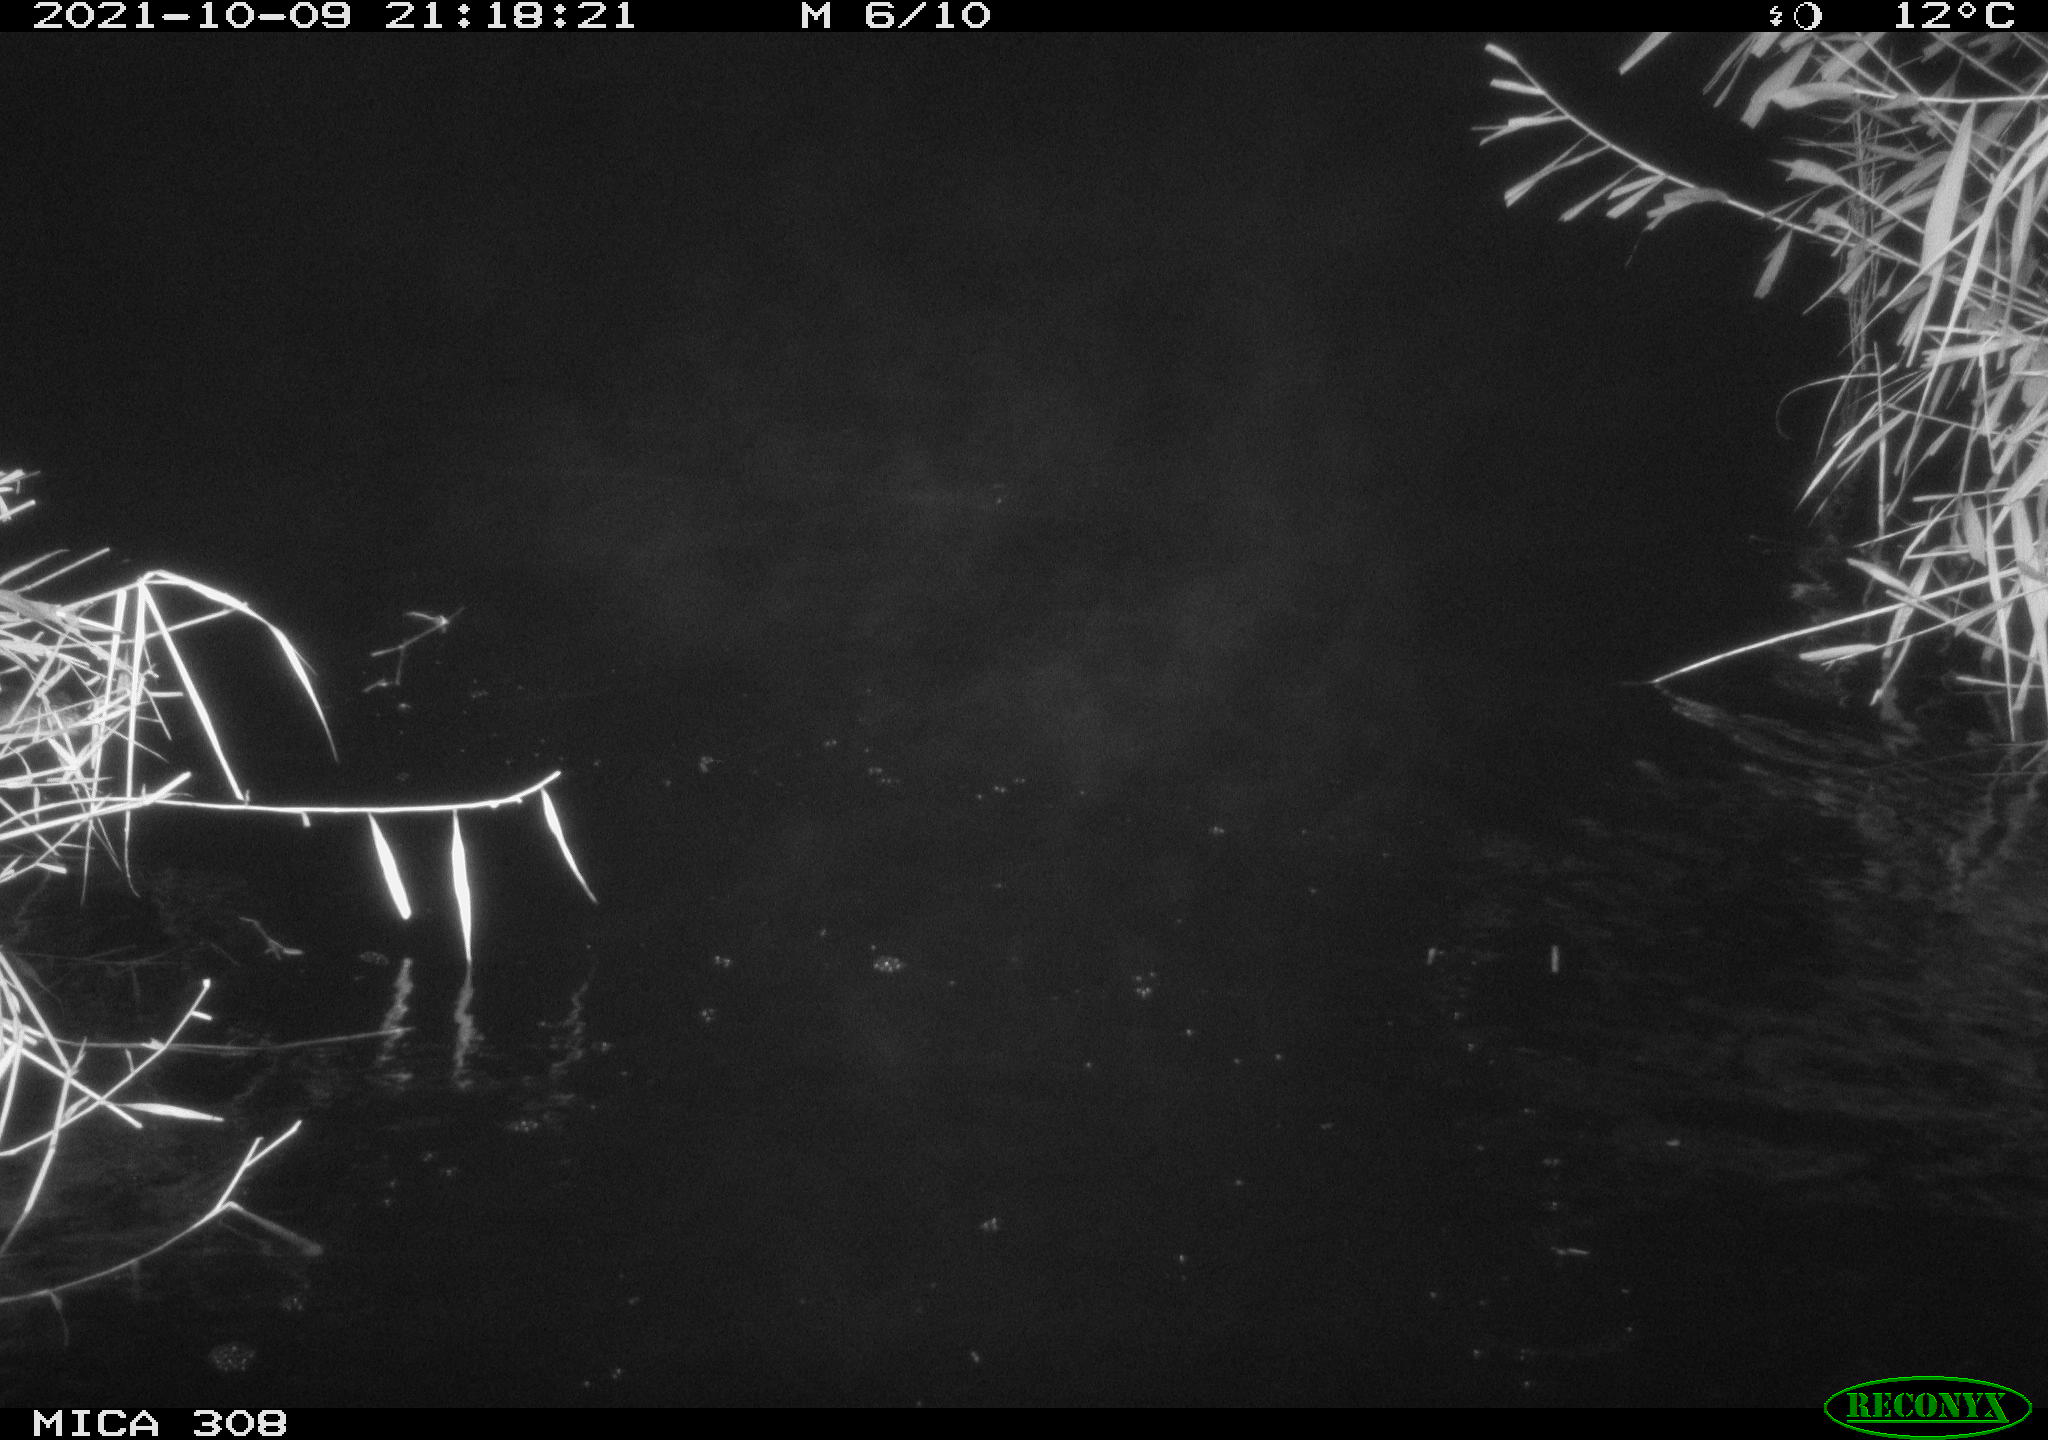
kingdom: Animalia
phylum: Chordata
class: Mammalia
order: Rodentia
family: Cricetidae
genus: Ondatra
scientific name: Ondatra zibethicus
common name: Muskrat
